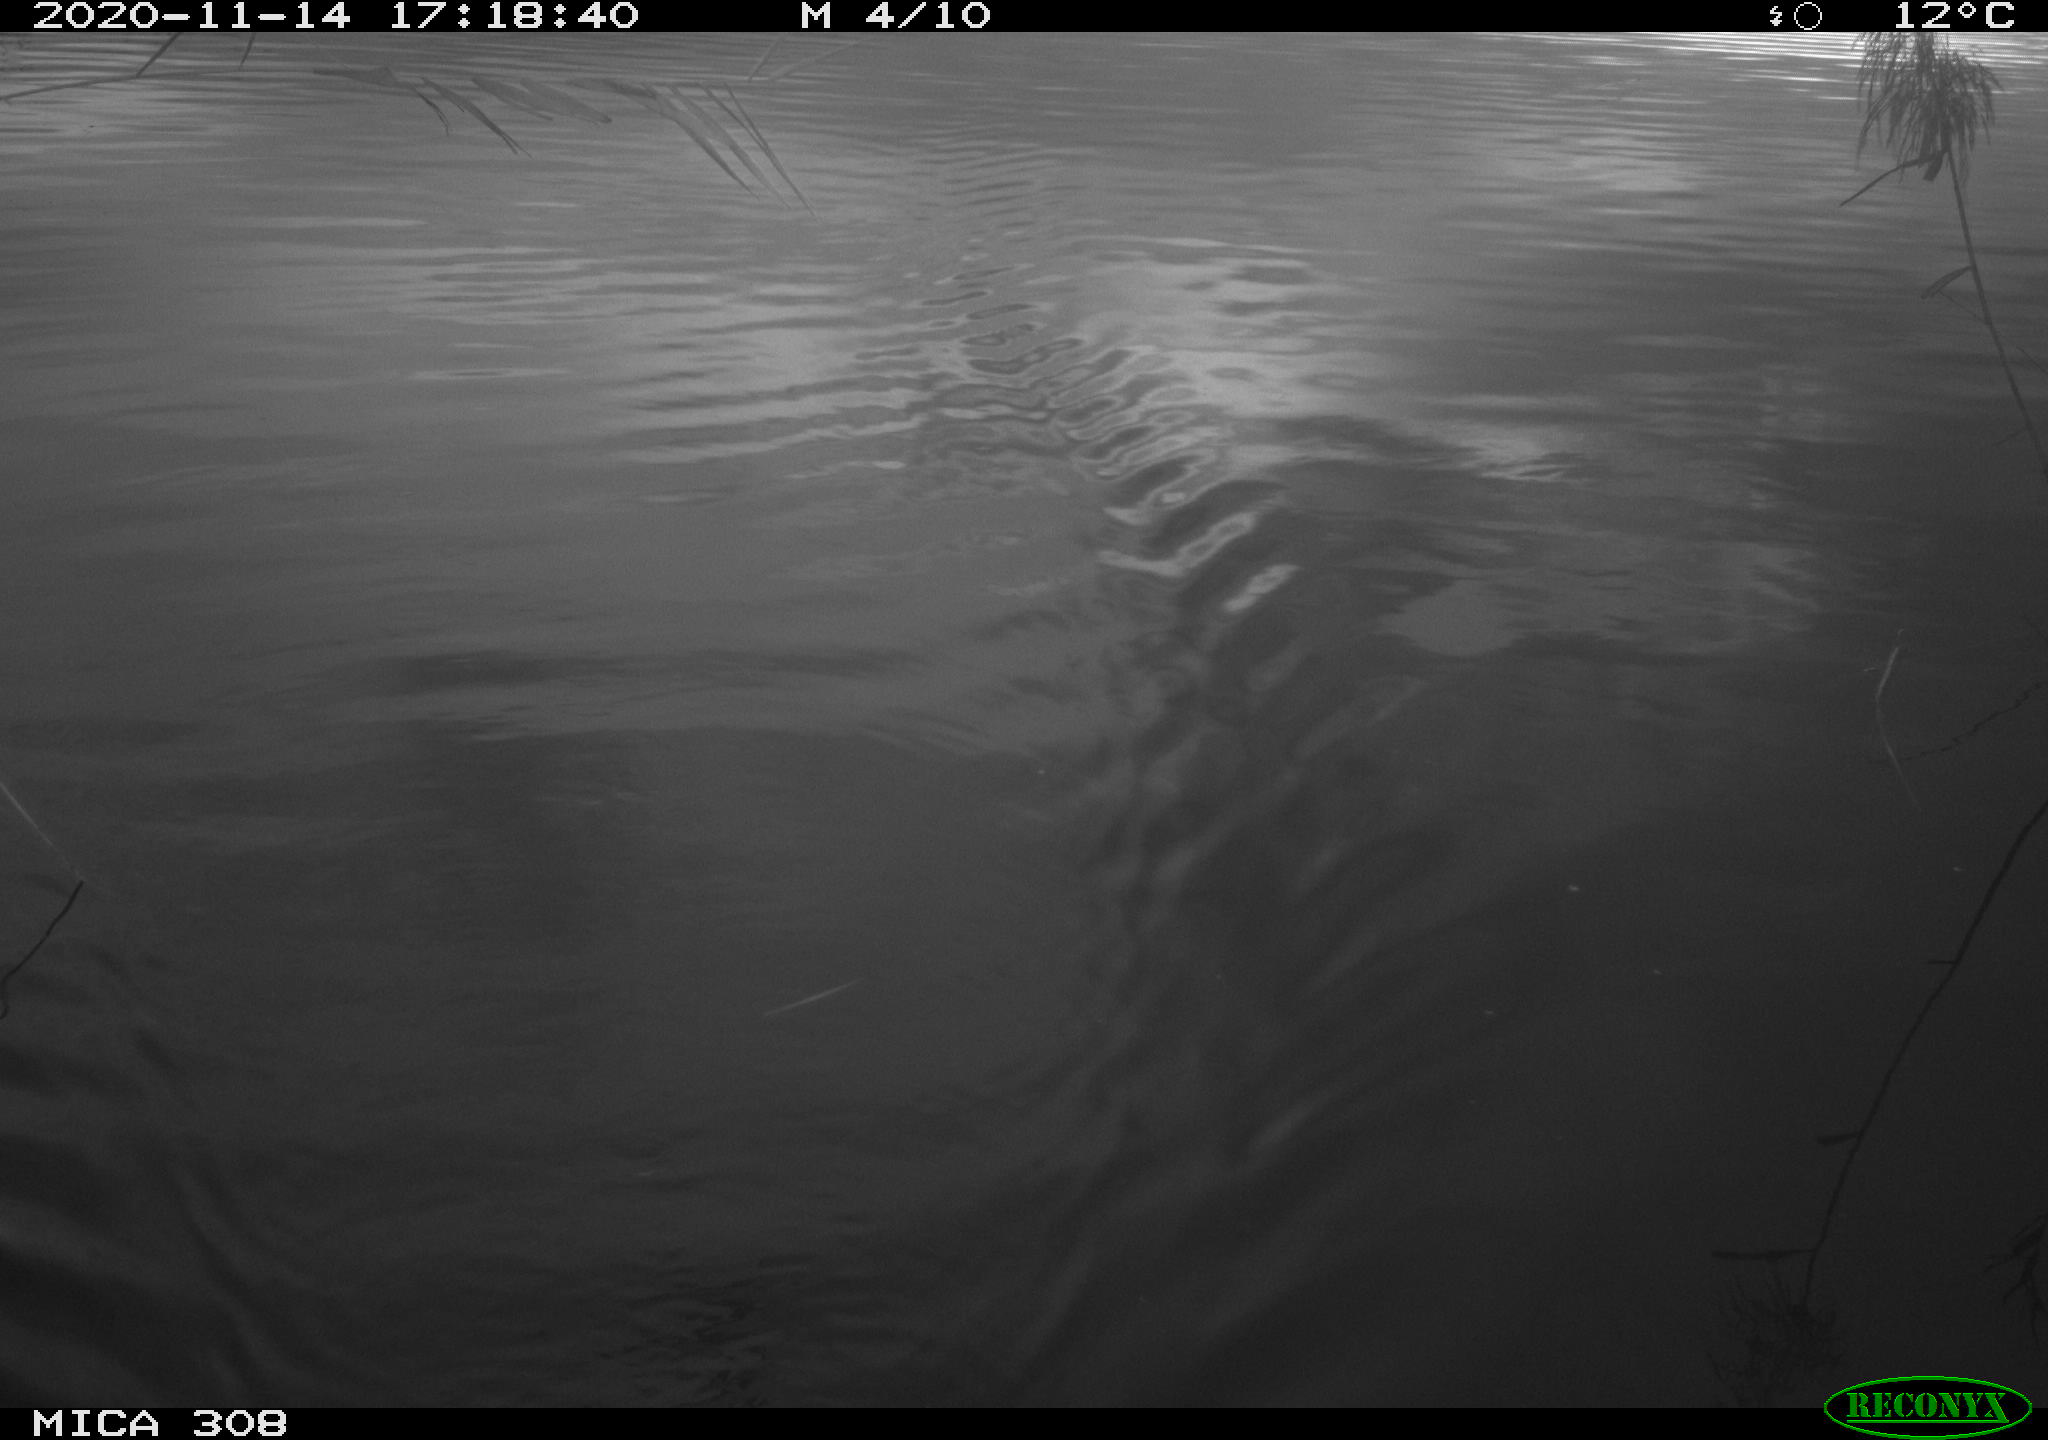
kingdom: Animalia
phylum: Chordata
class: Aves
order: Anseriformes
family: Anatidae
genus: Anas
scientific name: Anas platyrhynchos
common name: Mallard
